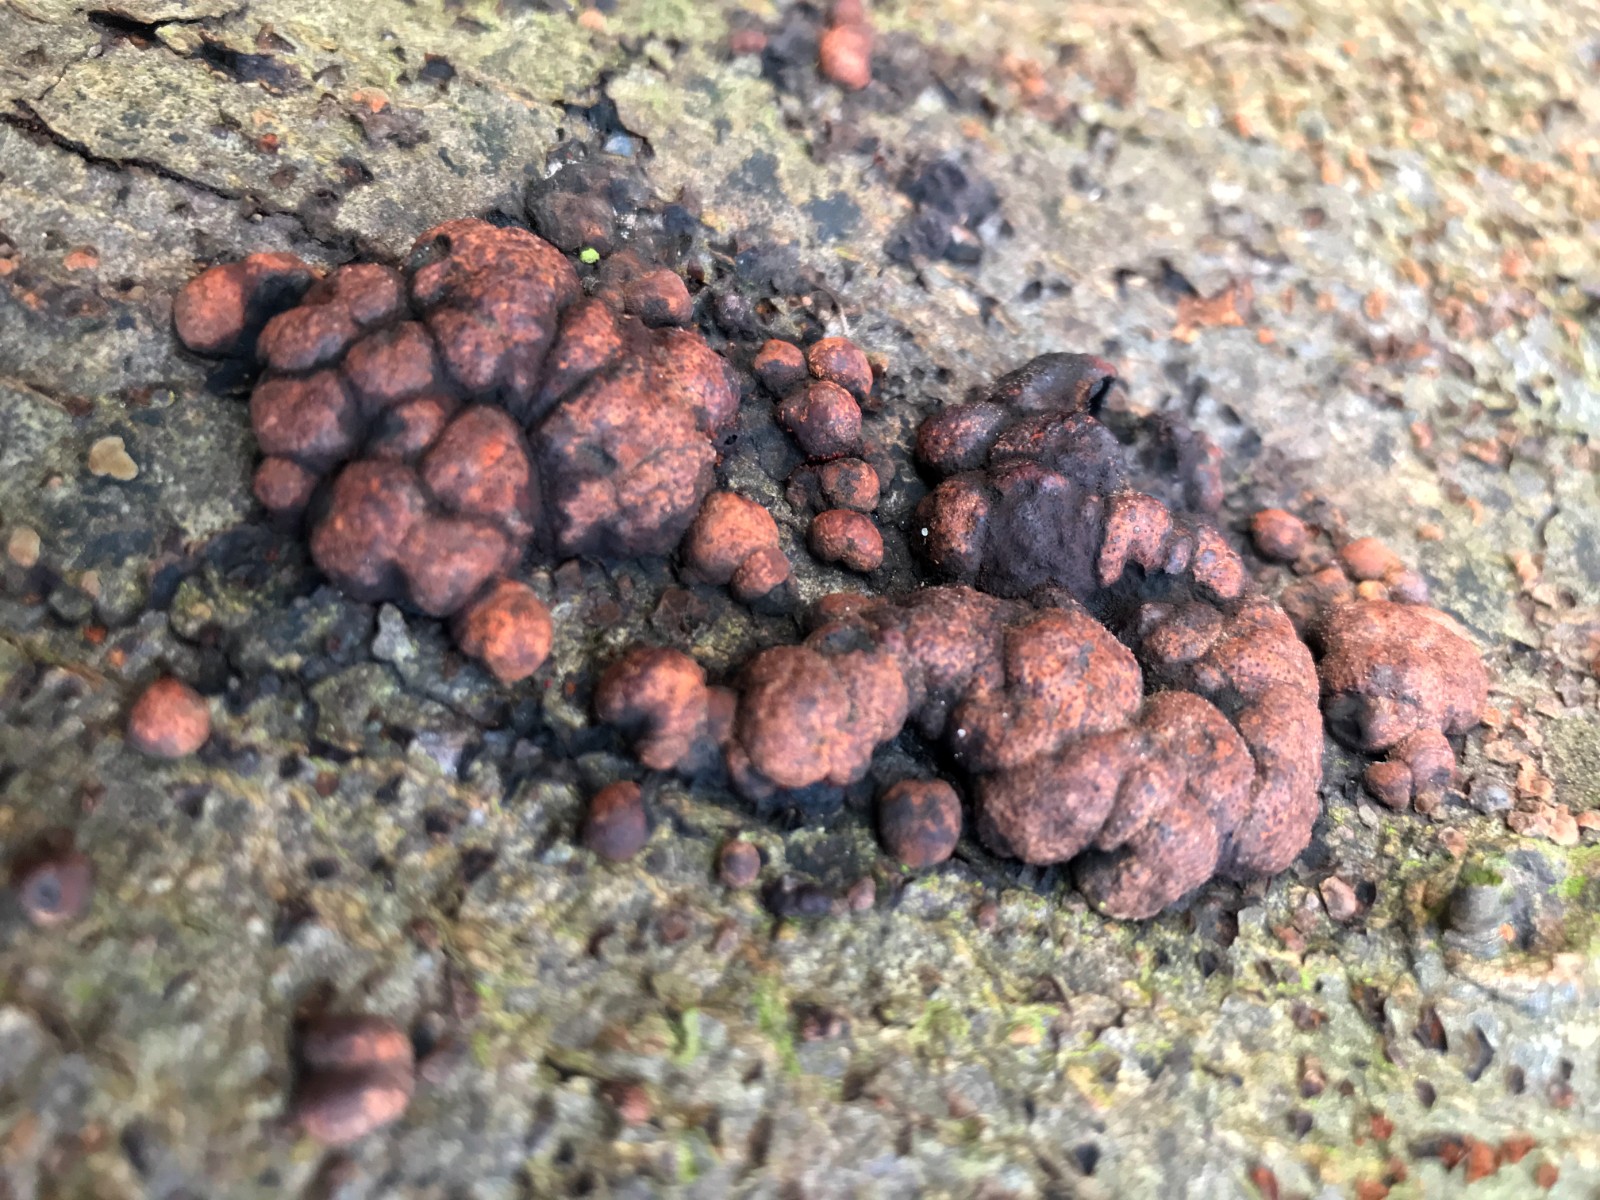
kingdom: Fungi
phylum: Ascomycota
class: Sordariomycetes
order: Xylariales
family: Hypoxylaceae
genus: Hypoxylon
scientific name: Hypoxylon fragiforme
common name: kuljordbær
